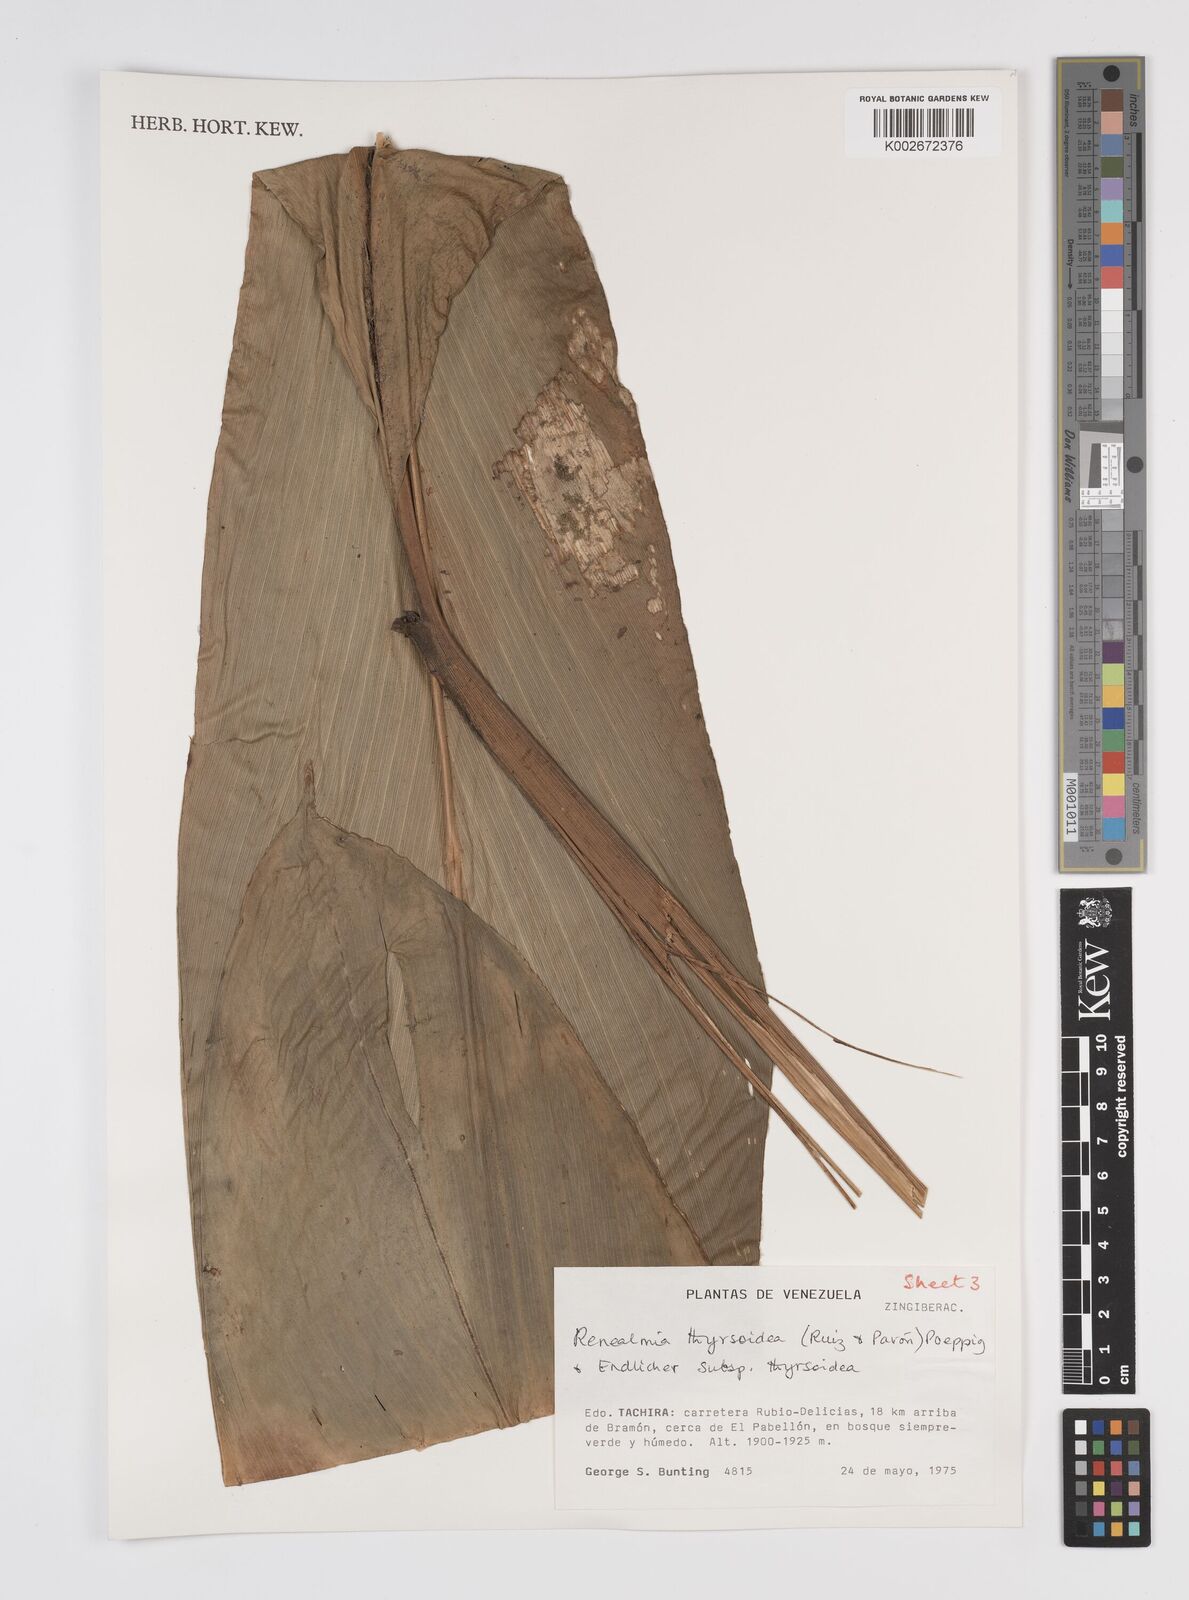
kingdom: Plantae
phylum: Tracheophyta
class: Liliopsida
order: Zingiberales
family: Zingiberaceae
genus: Renealmia
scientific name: Renealmia thyrsoidea
